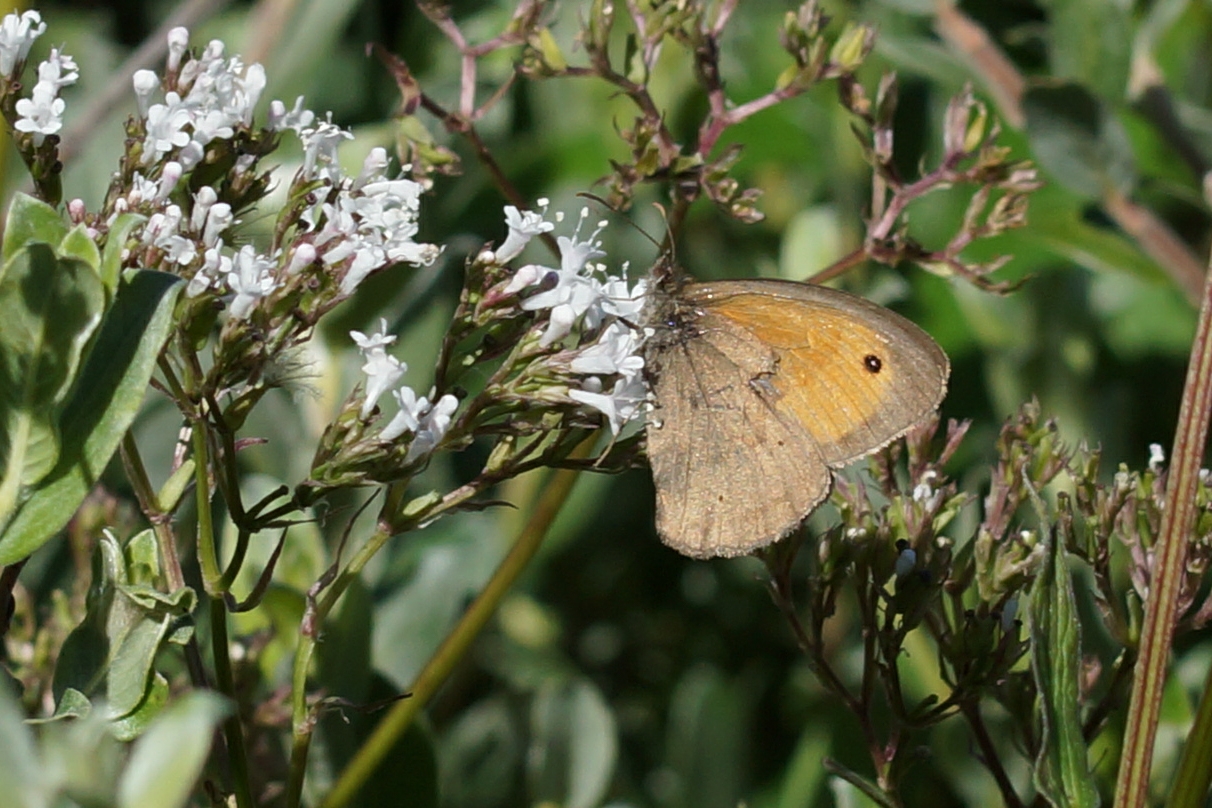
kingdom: Animalia
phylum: Arthropoda
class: Insecta
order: Lepidoptera
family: Nymphalidae
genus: Maniola
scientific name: Maniola jurtina
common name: Græsrandøje
